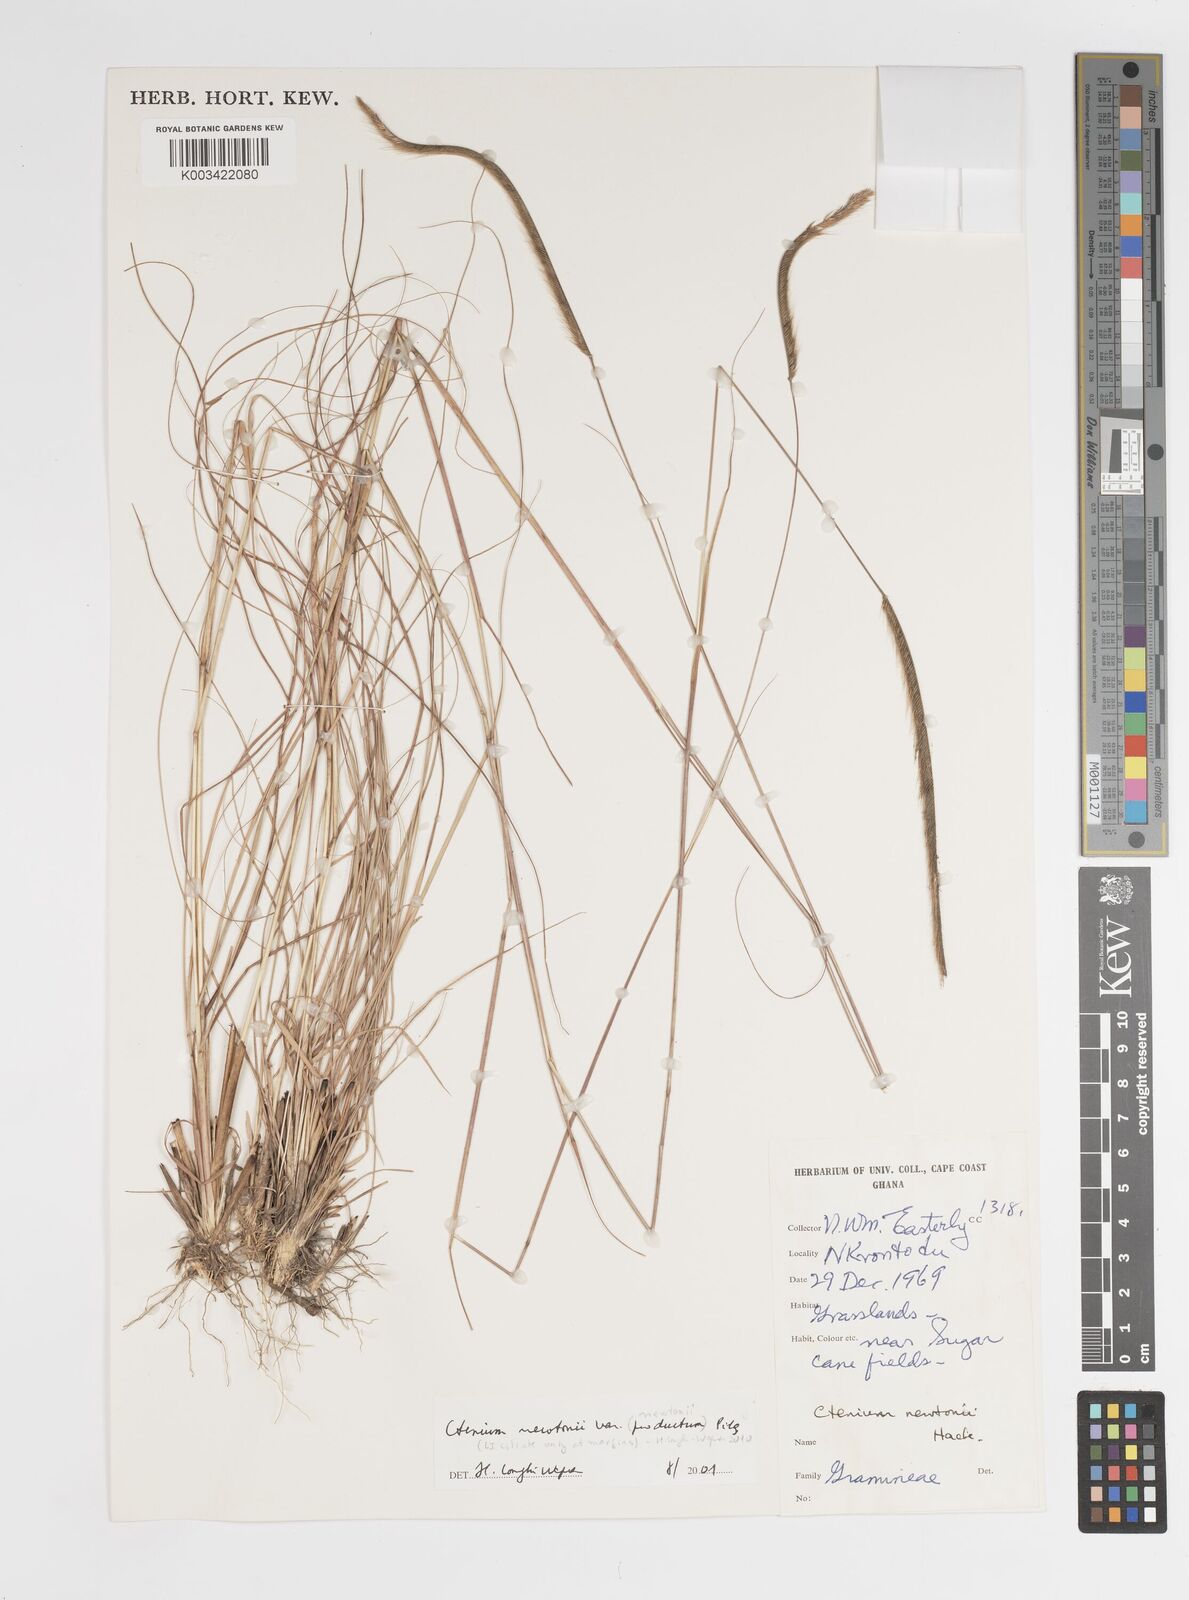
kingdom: Plantae
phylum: Tracheophyta
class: Liliopsida
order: Poales
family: Poaceae
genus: Ctenium
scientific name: Ctenium newtonii
